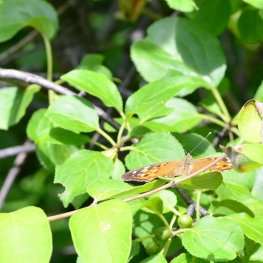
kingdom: Animalia
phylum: Arthropoda
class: Insecta
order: Lepidoptera
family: Nymphalidae
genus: Asterocampa
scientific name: Asterocampa celtis
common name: Hackberry Emperor
